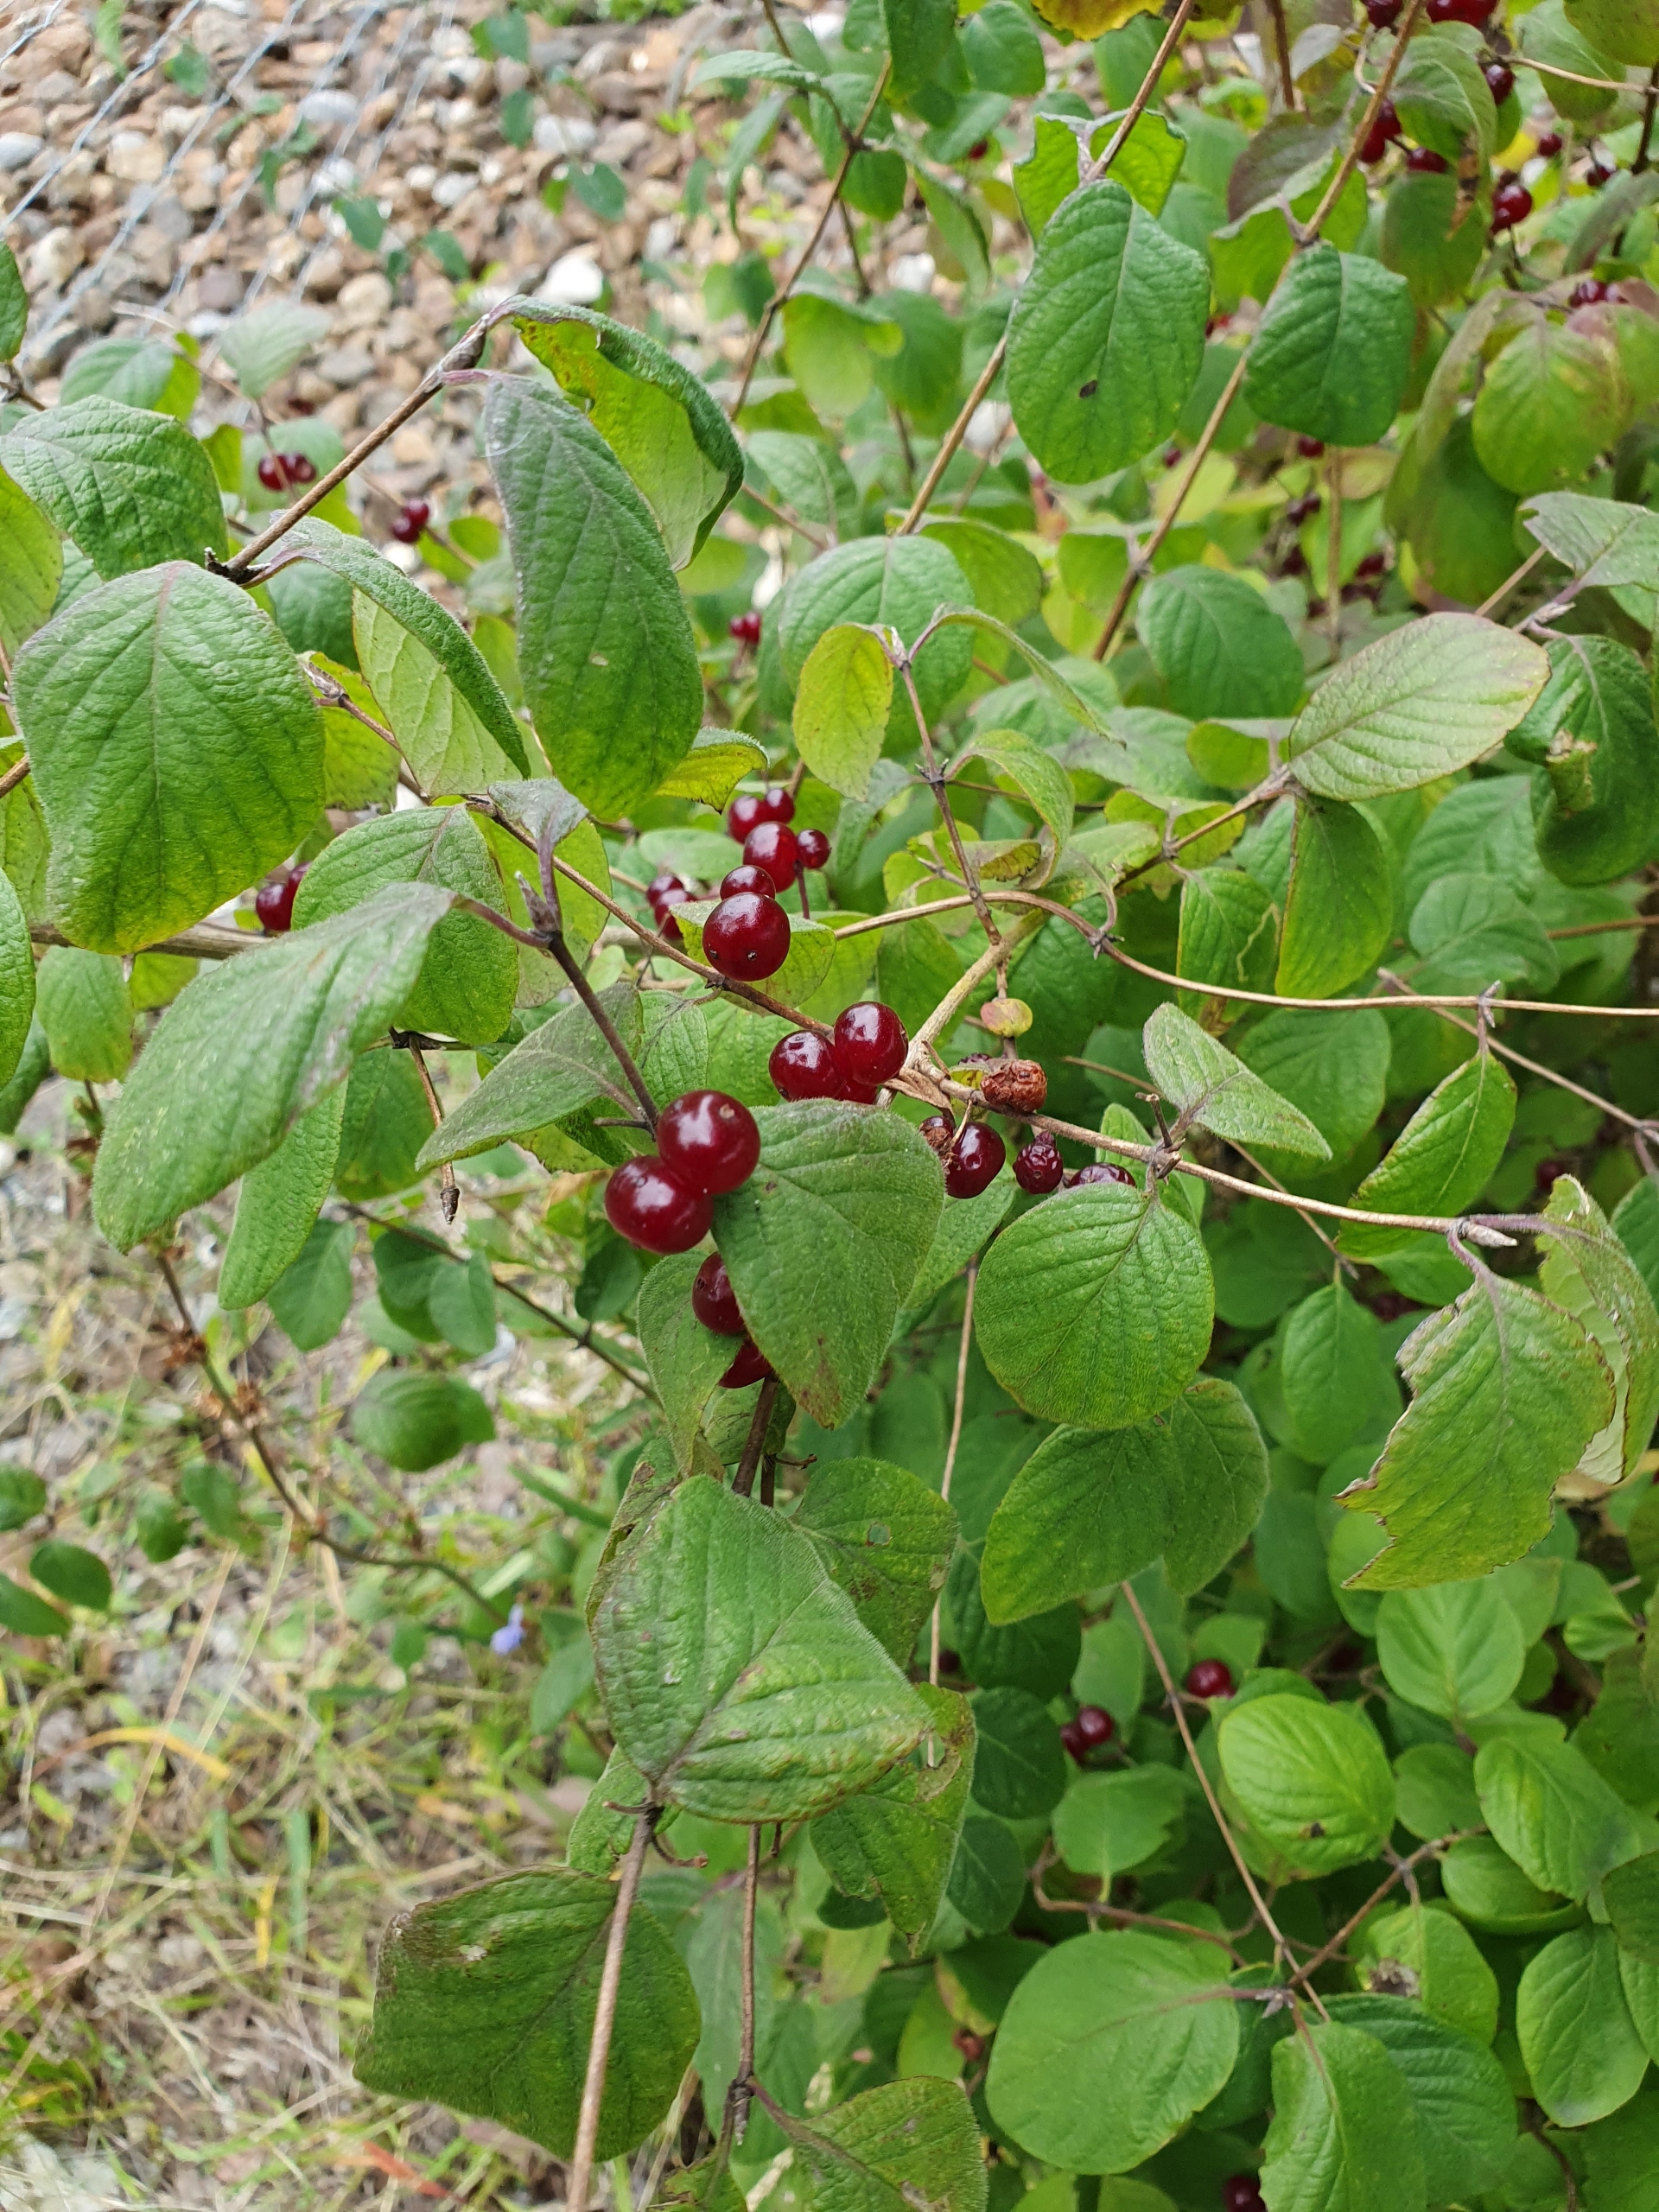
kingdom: Plantae
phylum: Tracheophyta
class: Magnoliopsida
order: Dipsacales
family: Caprifoliaceae
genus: Lonicera
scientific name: Lonicera xylosteum
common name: Dunet gedeblad
